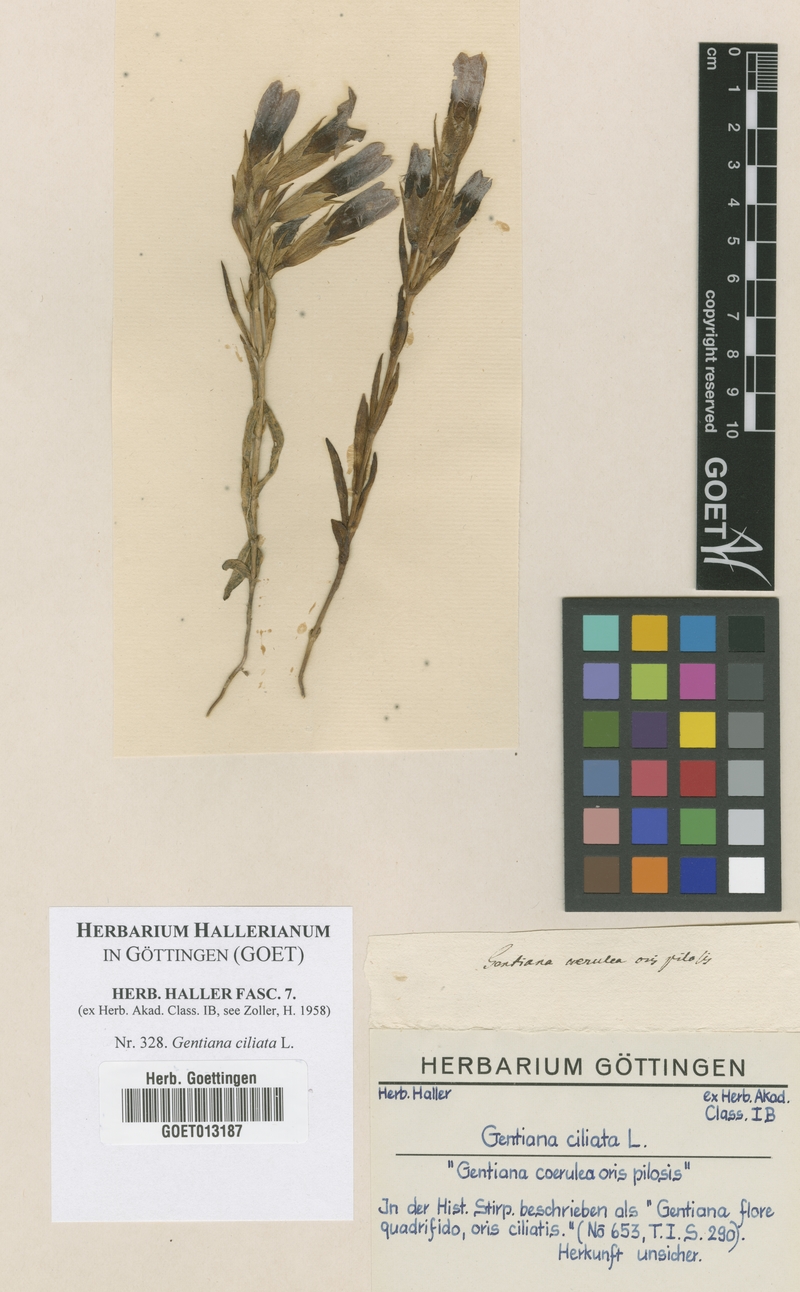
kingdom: Plantae
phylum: Tracheophyta
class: Magnoliopsida
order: Gentianales
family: Gentianaceae
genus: Gentianopsis
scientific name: Gentianopsis ciliata
